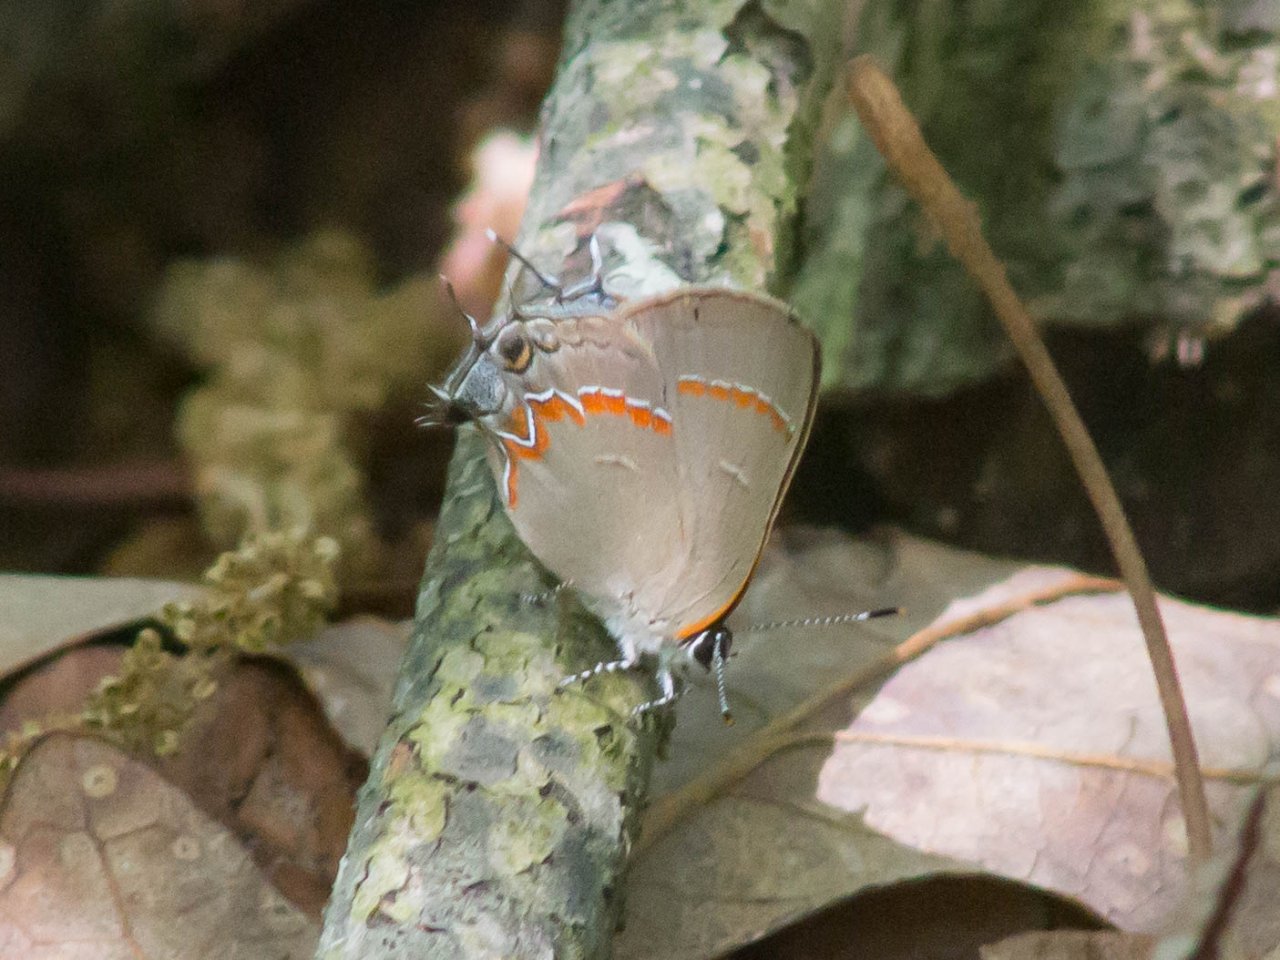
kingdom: Animalia
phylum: Arthropoda
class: Insecta
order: Lepidoptera
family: Lycaenidae
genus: Calycopis
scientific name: Calycopis cecrops
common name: Red-banded Hairstreak
